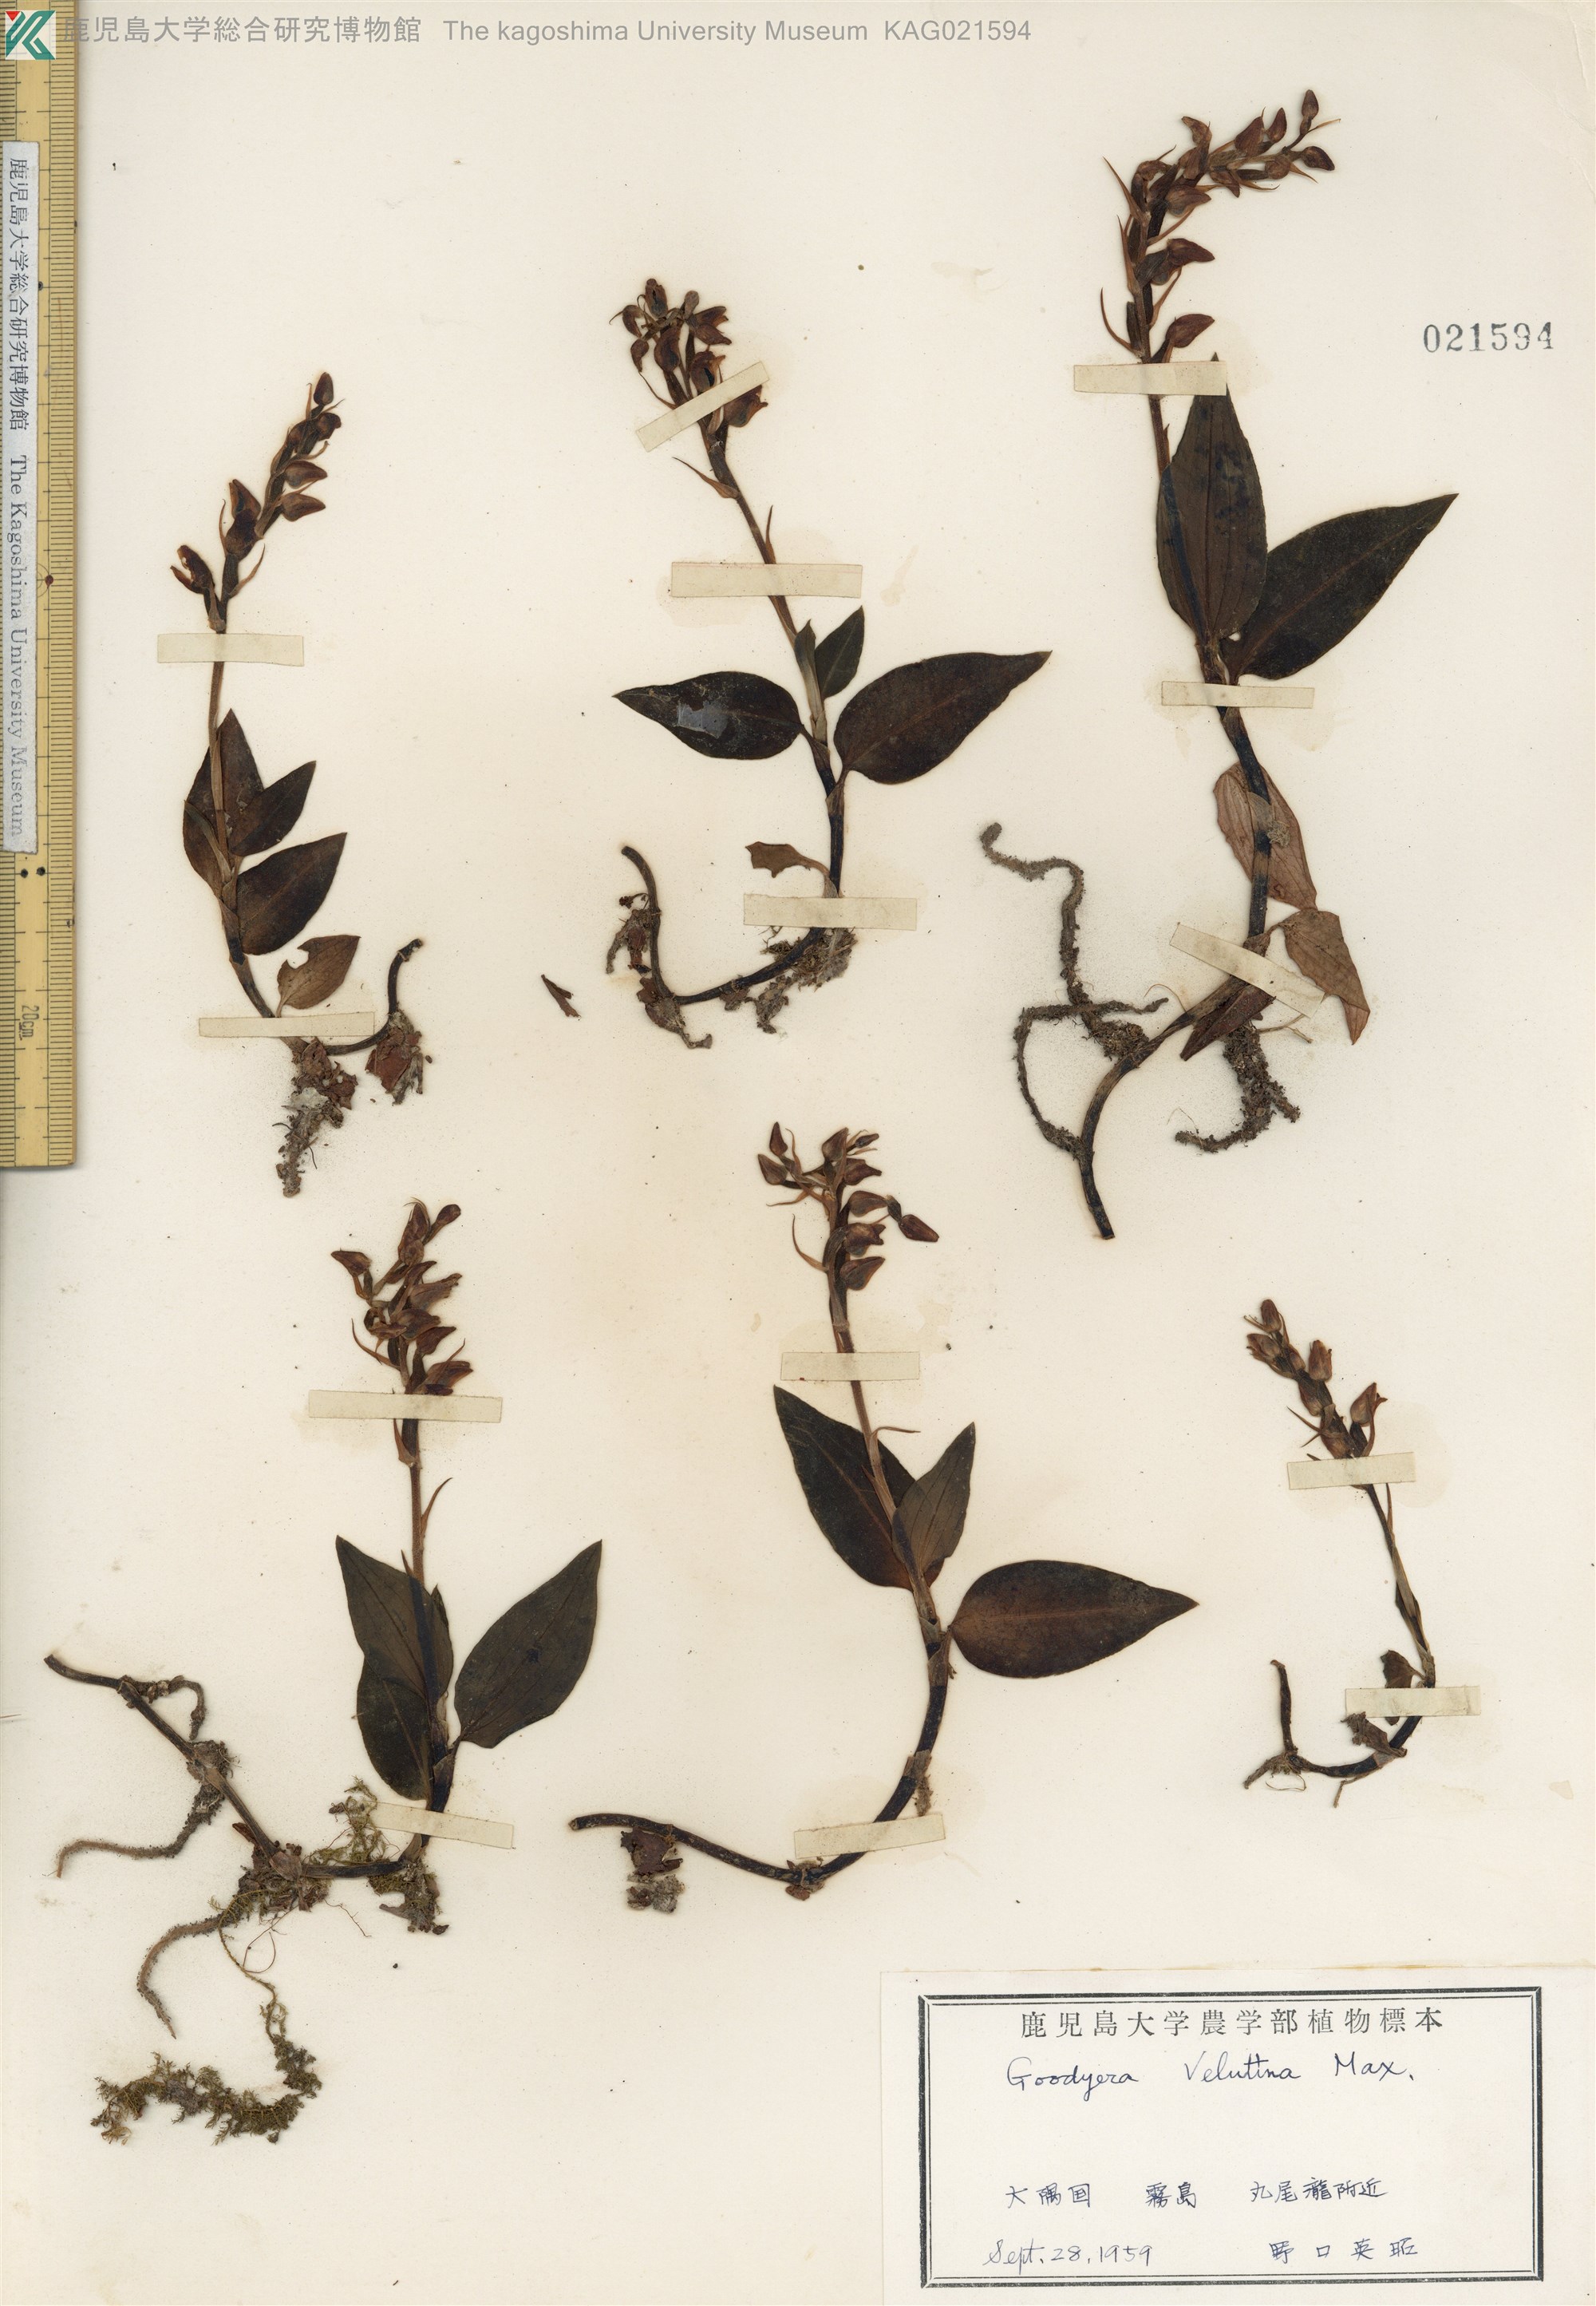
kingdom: Plantae
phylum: Tracheophyta
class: Liliopsida
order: Asparagales
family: Orchidaceae
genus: Goodyera
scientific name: Goodyera velutina
